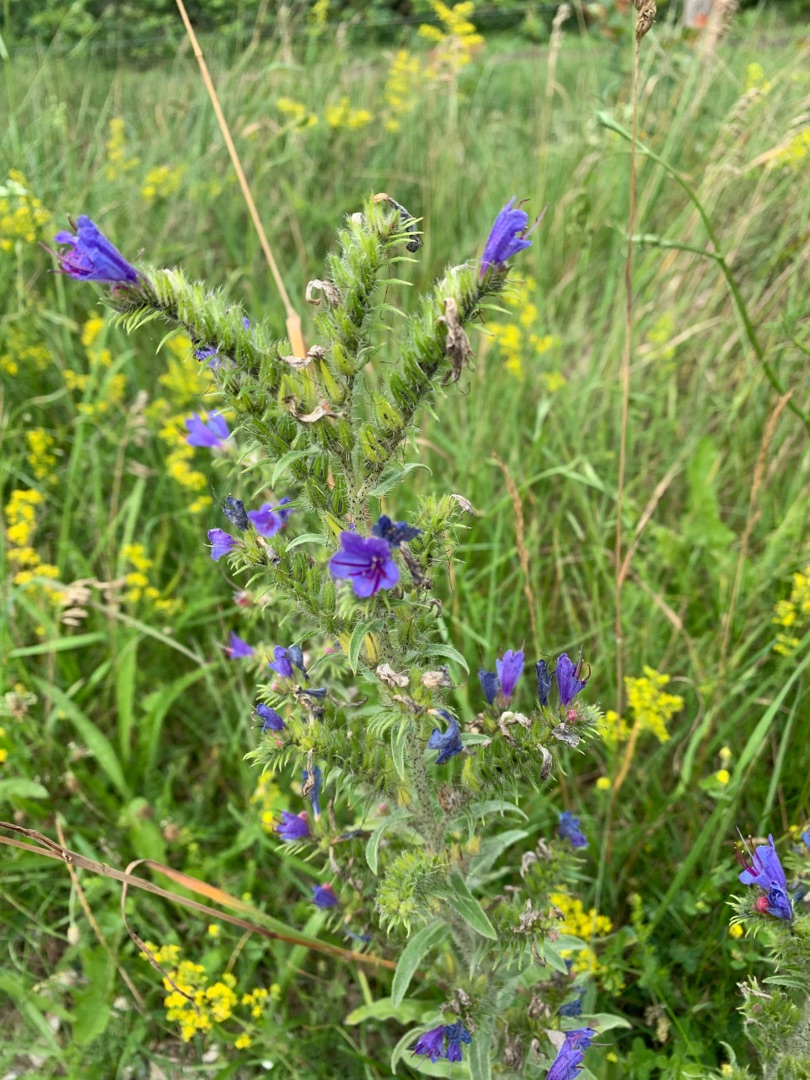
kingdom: Plantae
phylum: Tracheophyta
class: Magnoliopsida
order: Boraginales
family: Boraginaceae
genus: Echium
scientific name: Echium vulgare
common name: Slangehoved
